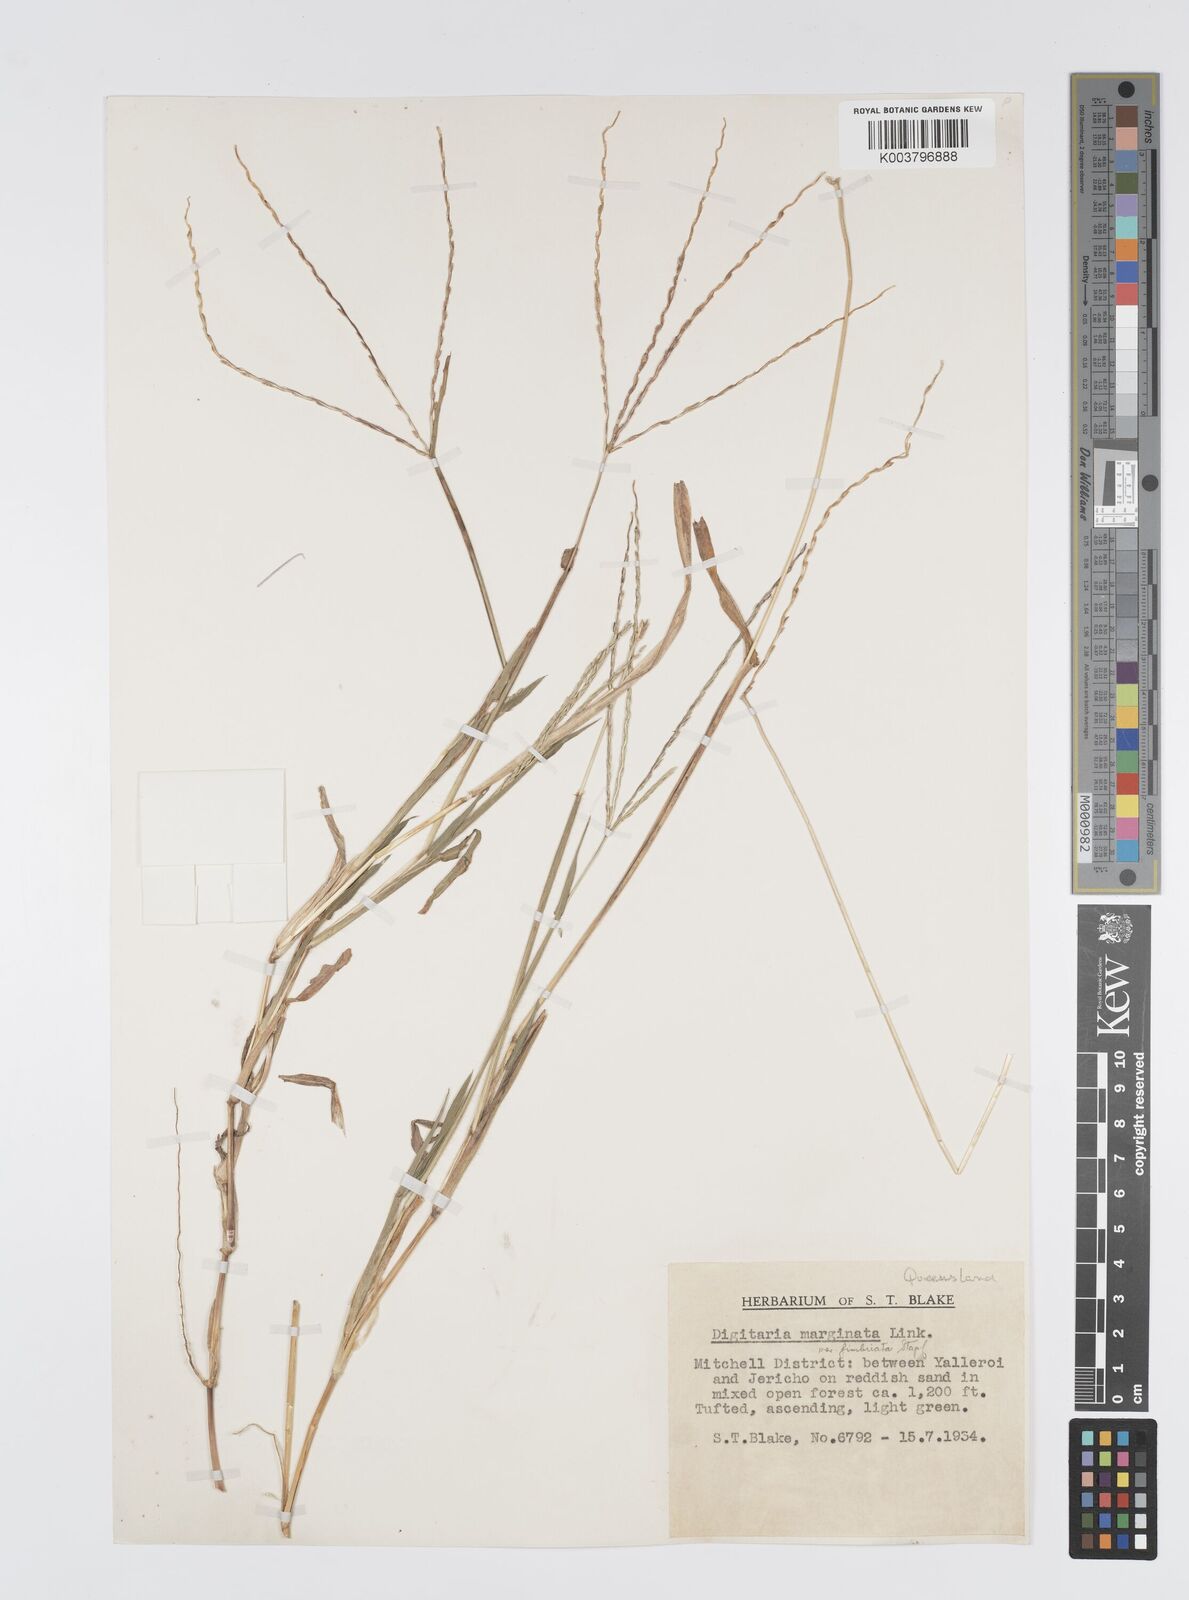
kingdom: Plantae
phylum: Tracheophyta
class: Liliopsida
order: Poales
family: Poaceae
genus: Digitaria
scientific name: Digitaria bicornis
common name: Asian crabgrass
